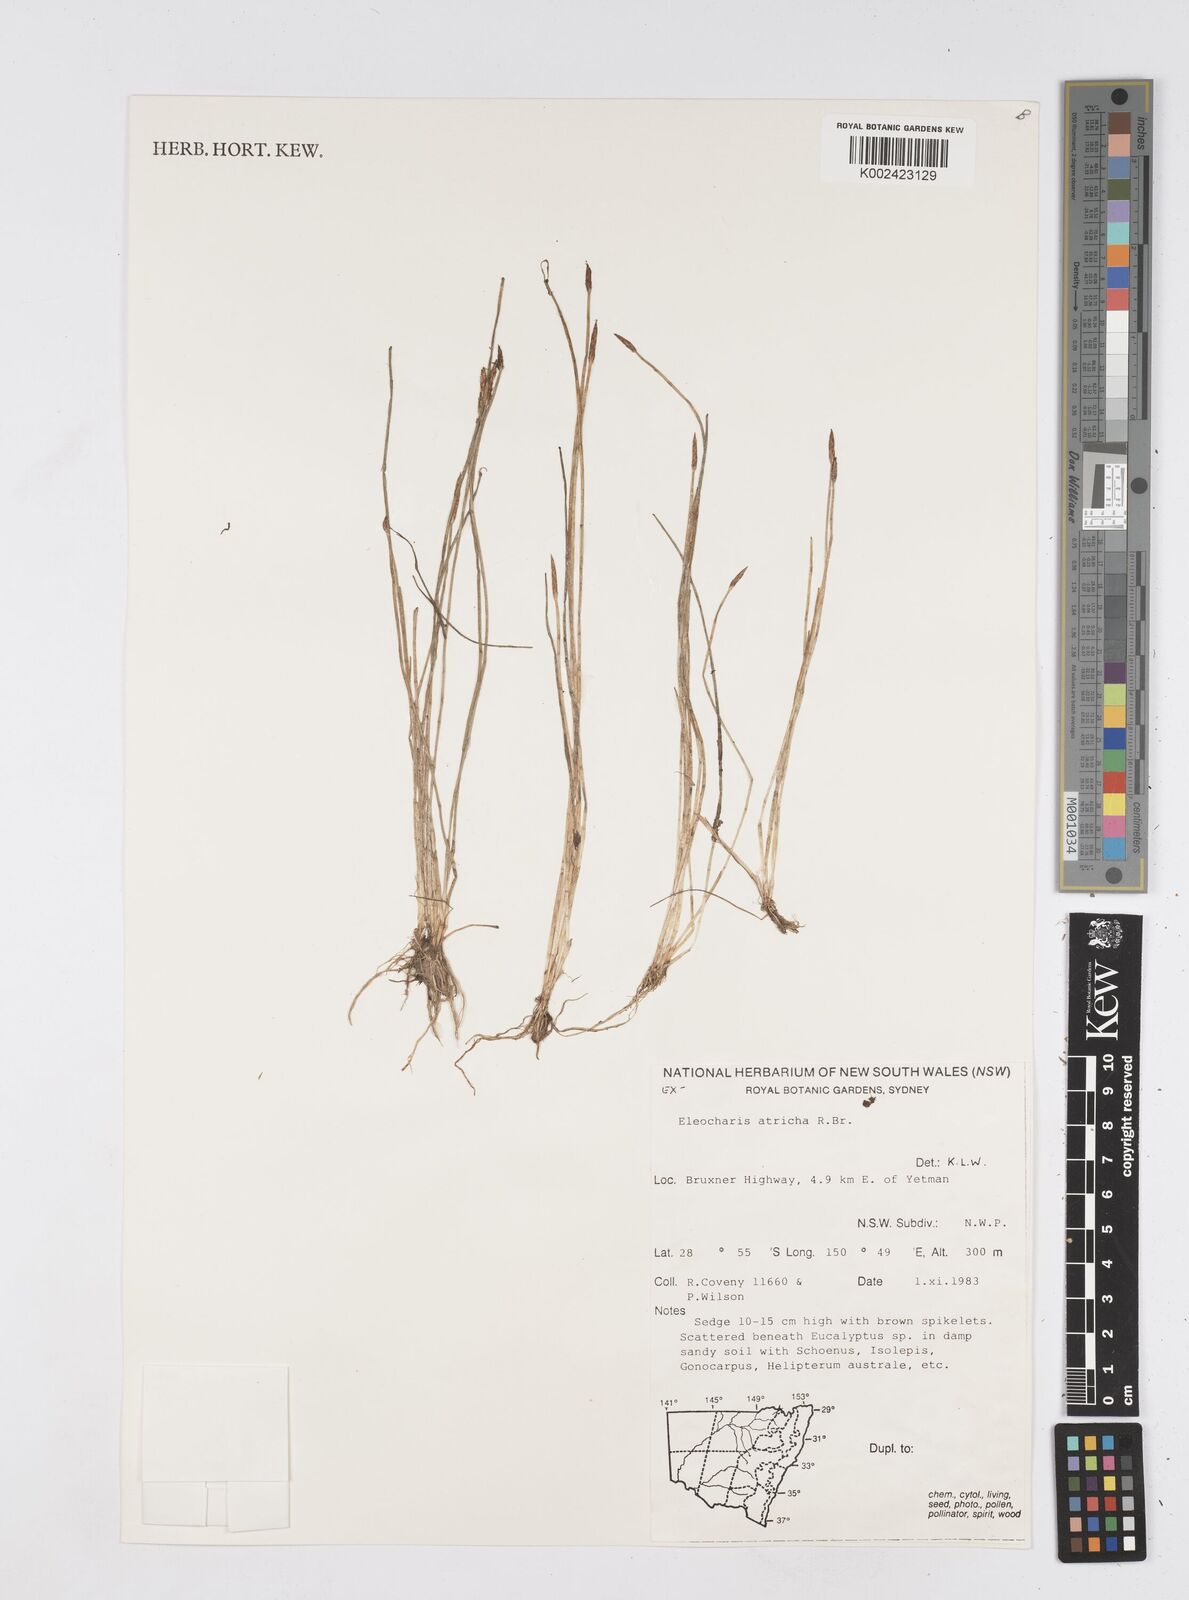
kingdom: Plantae
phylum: Tracheophyta
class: Liliopsida
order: Poales
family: Cyperaceae
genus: Eleocharis
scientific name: Eleocharis acicularis
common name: Needle spike-rush
